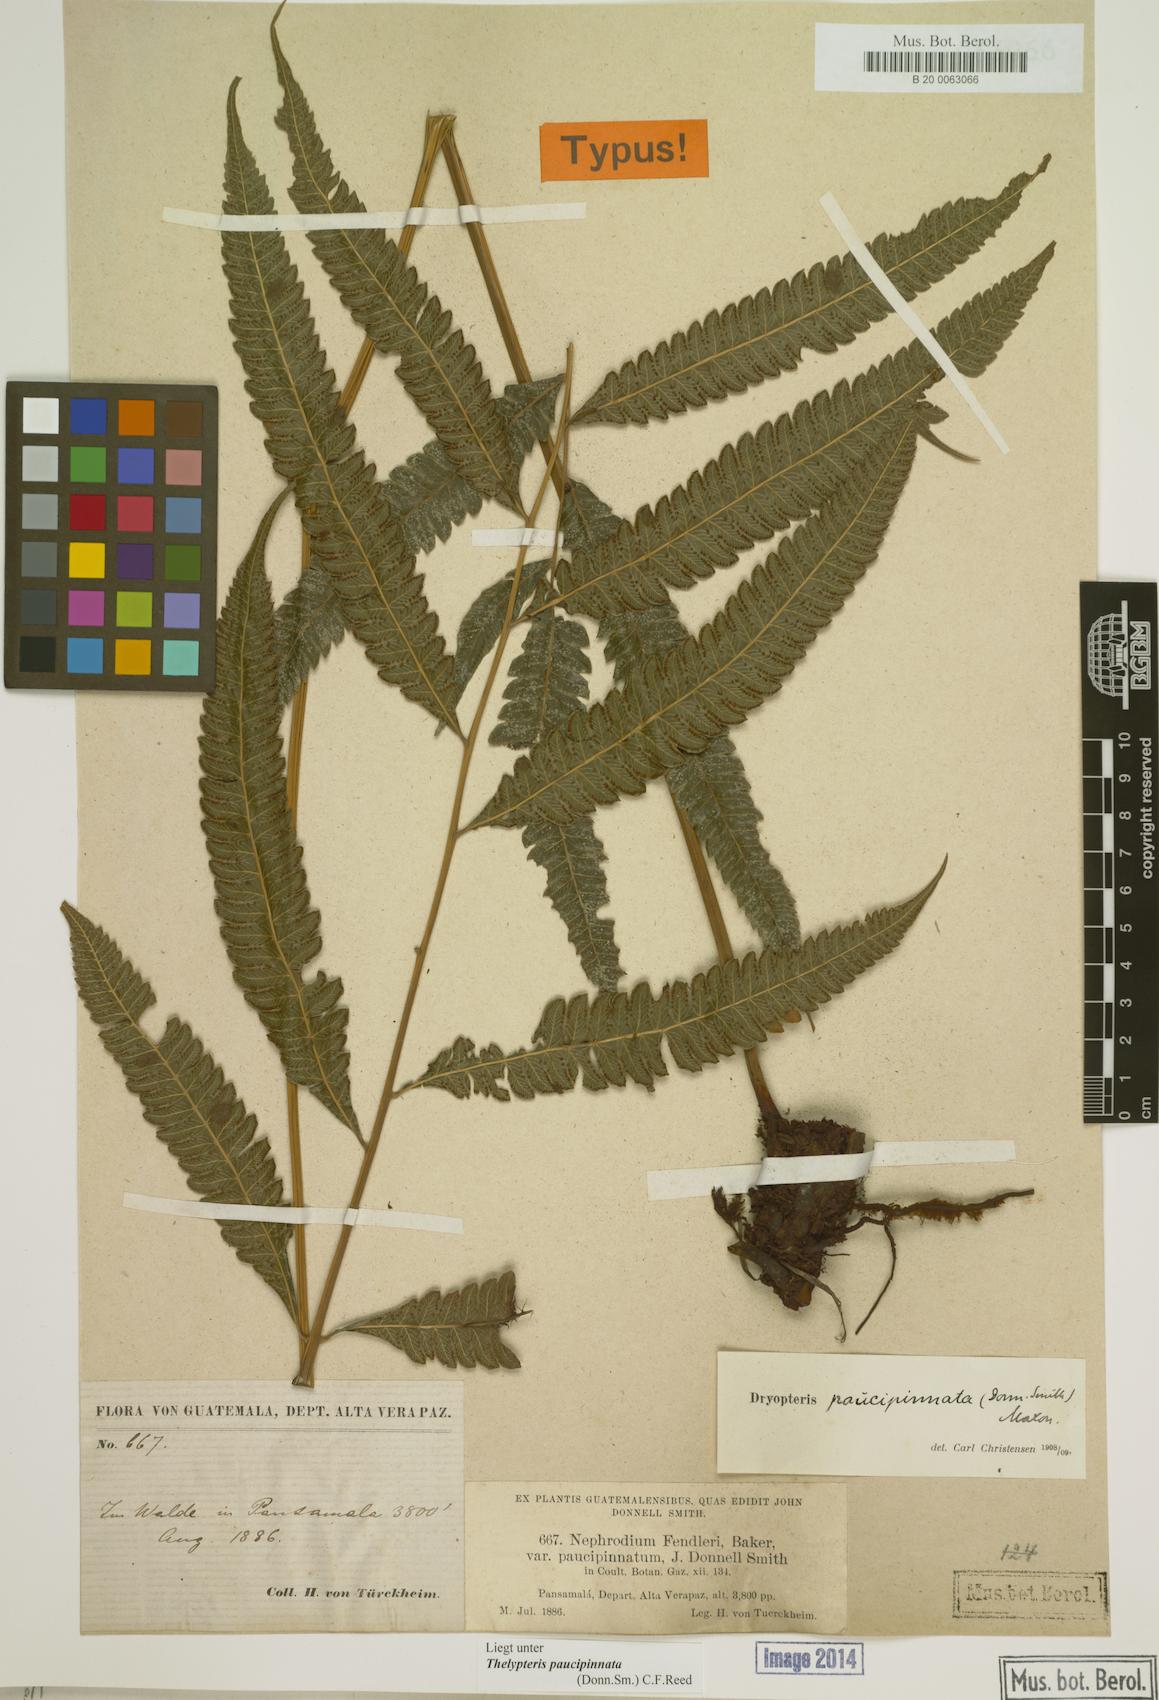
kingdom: Plantae
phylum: Tracheophyta
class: Polypodiopsida
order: Polypodiales
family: Thelypteridaceae
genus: Goniopteris
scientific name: Goniopteris paucipinnata
